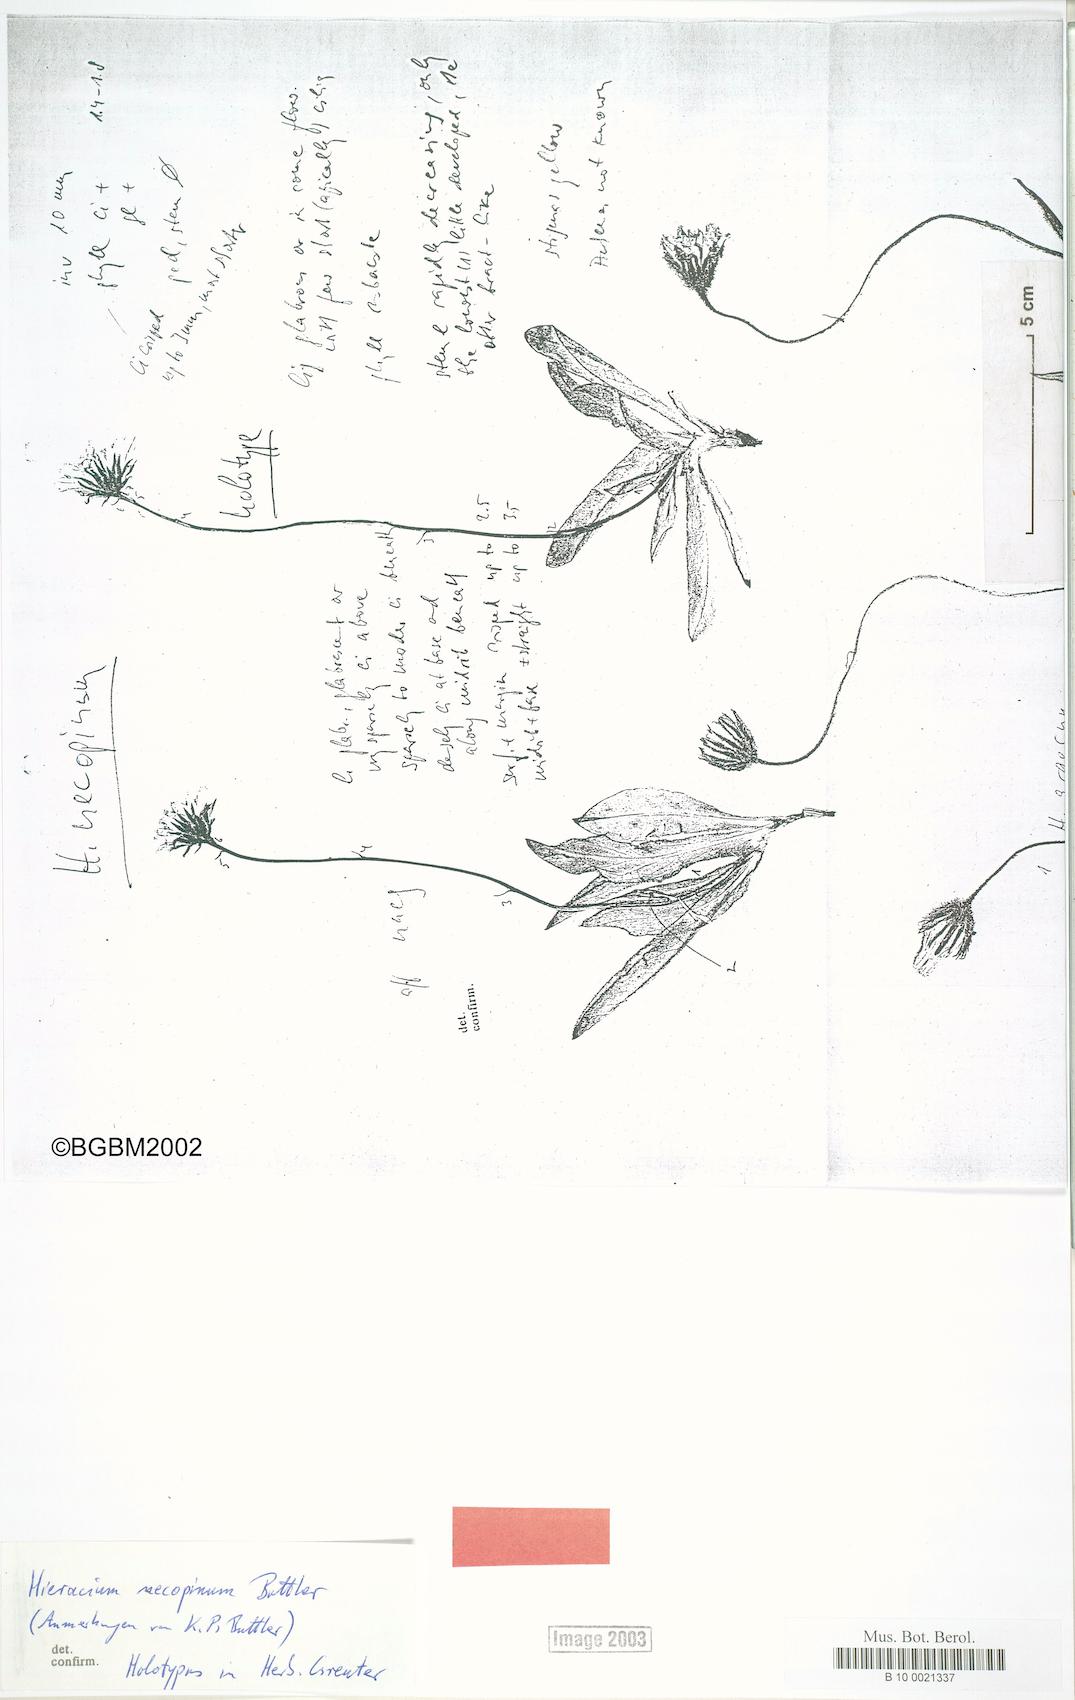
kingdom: Plantae
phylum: Tracheophyta
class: Magnoliopsida
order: Asterales
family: Asteraceae
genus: Hieracium
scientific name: Hieracium necopinum
